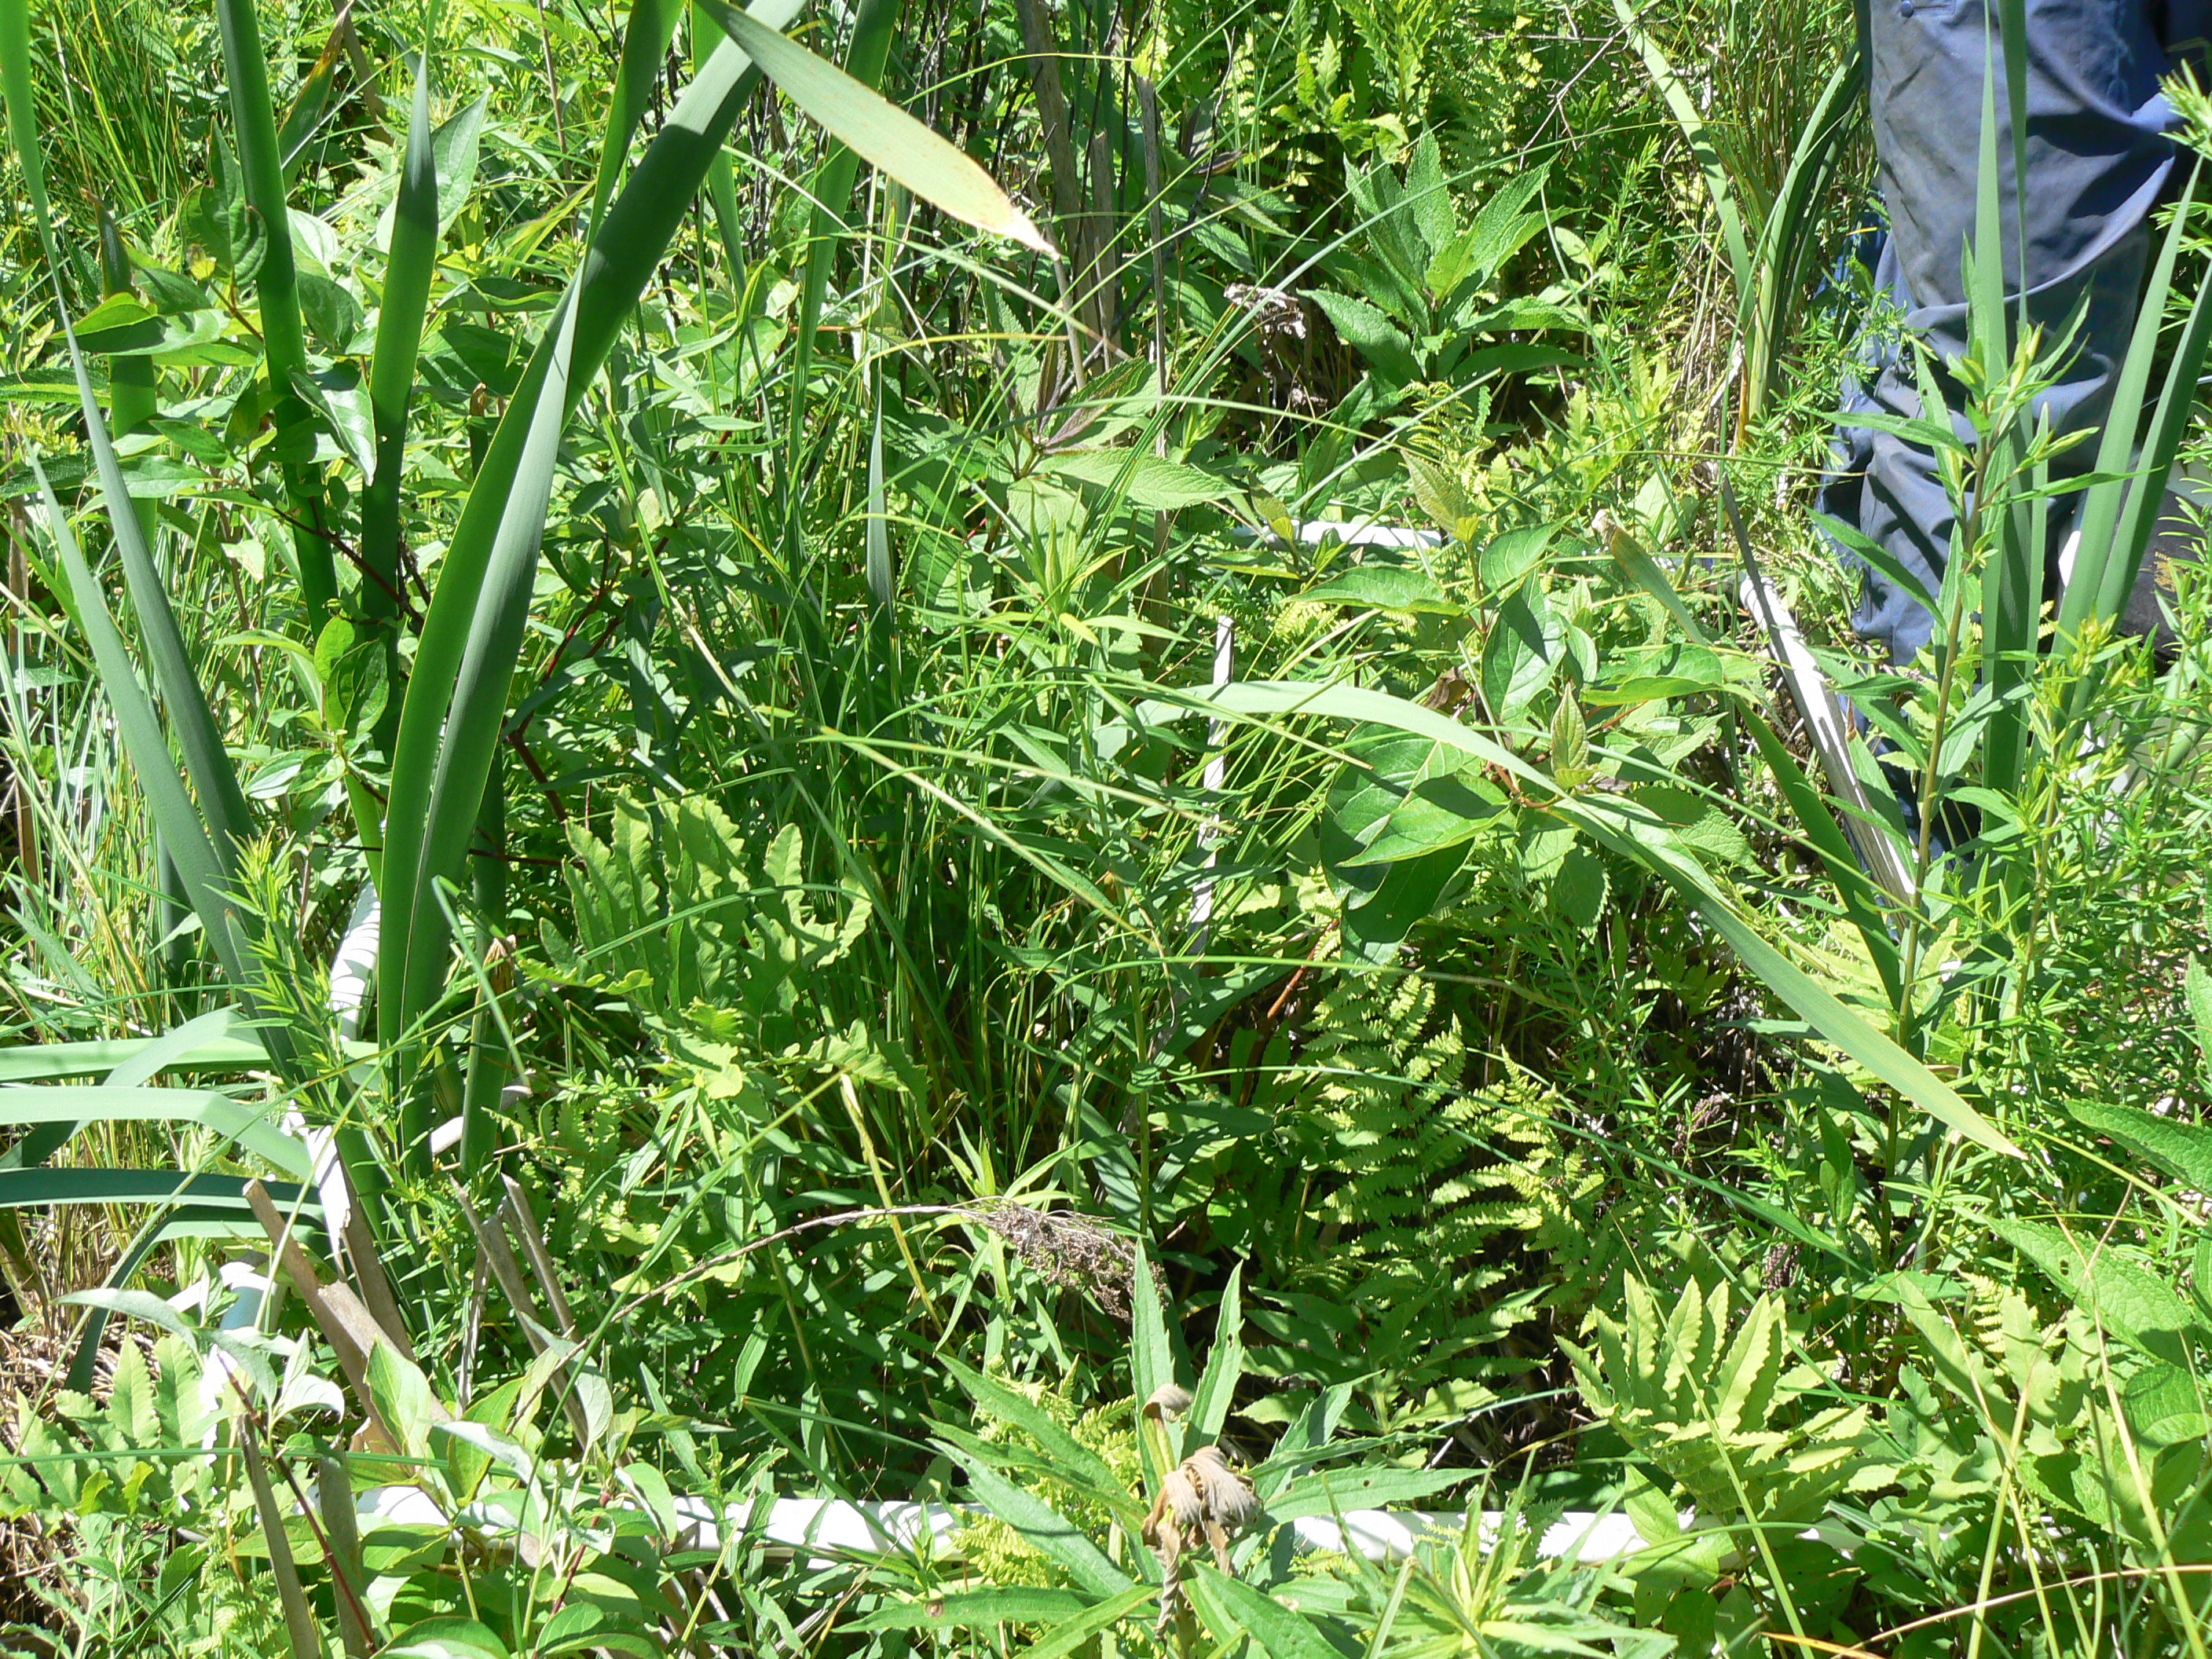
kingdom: Plantae
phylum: Tracheophyta
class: Liliopsida
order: Poales
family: Typhaceae
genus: Typha
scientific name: Typha latifolia
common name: Broadleaf cattail
